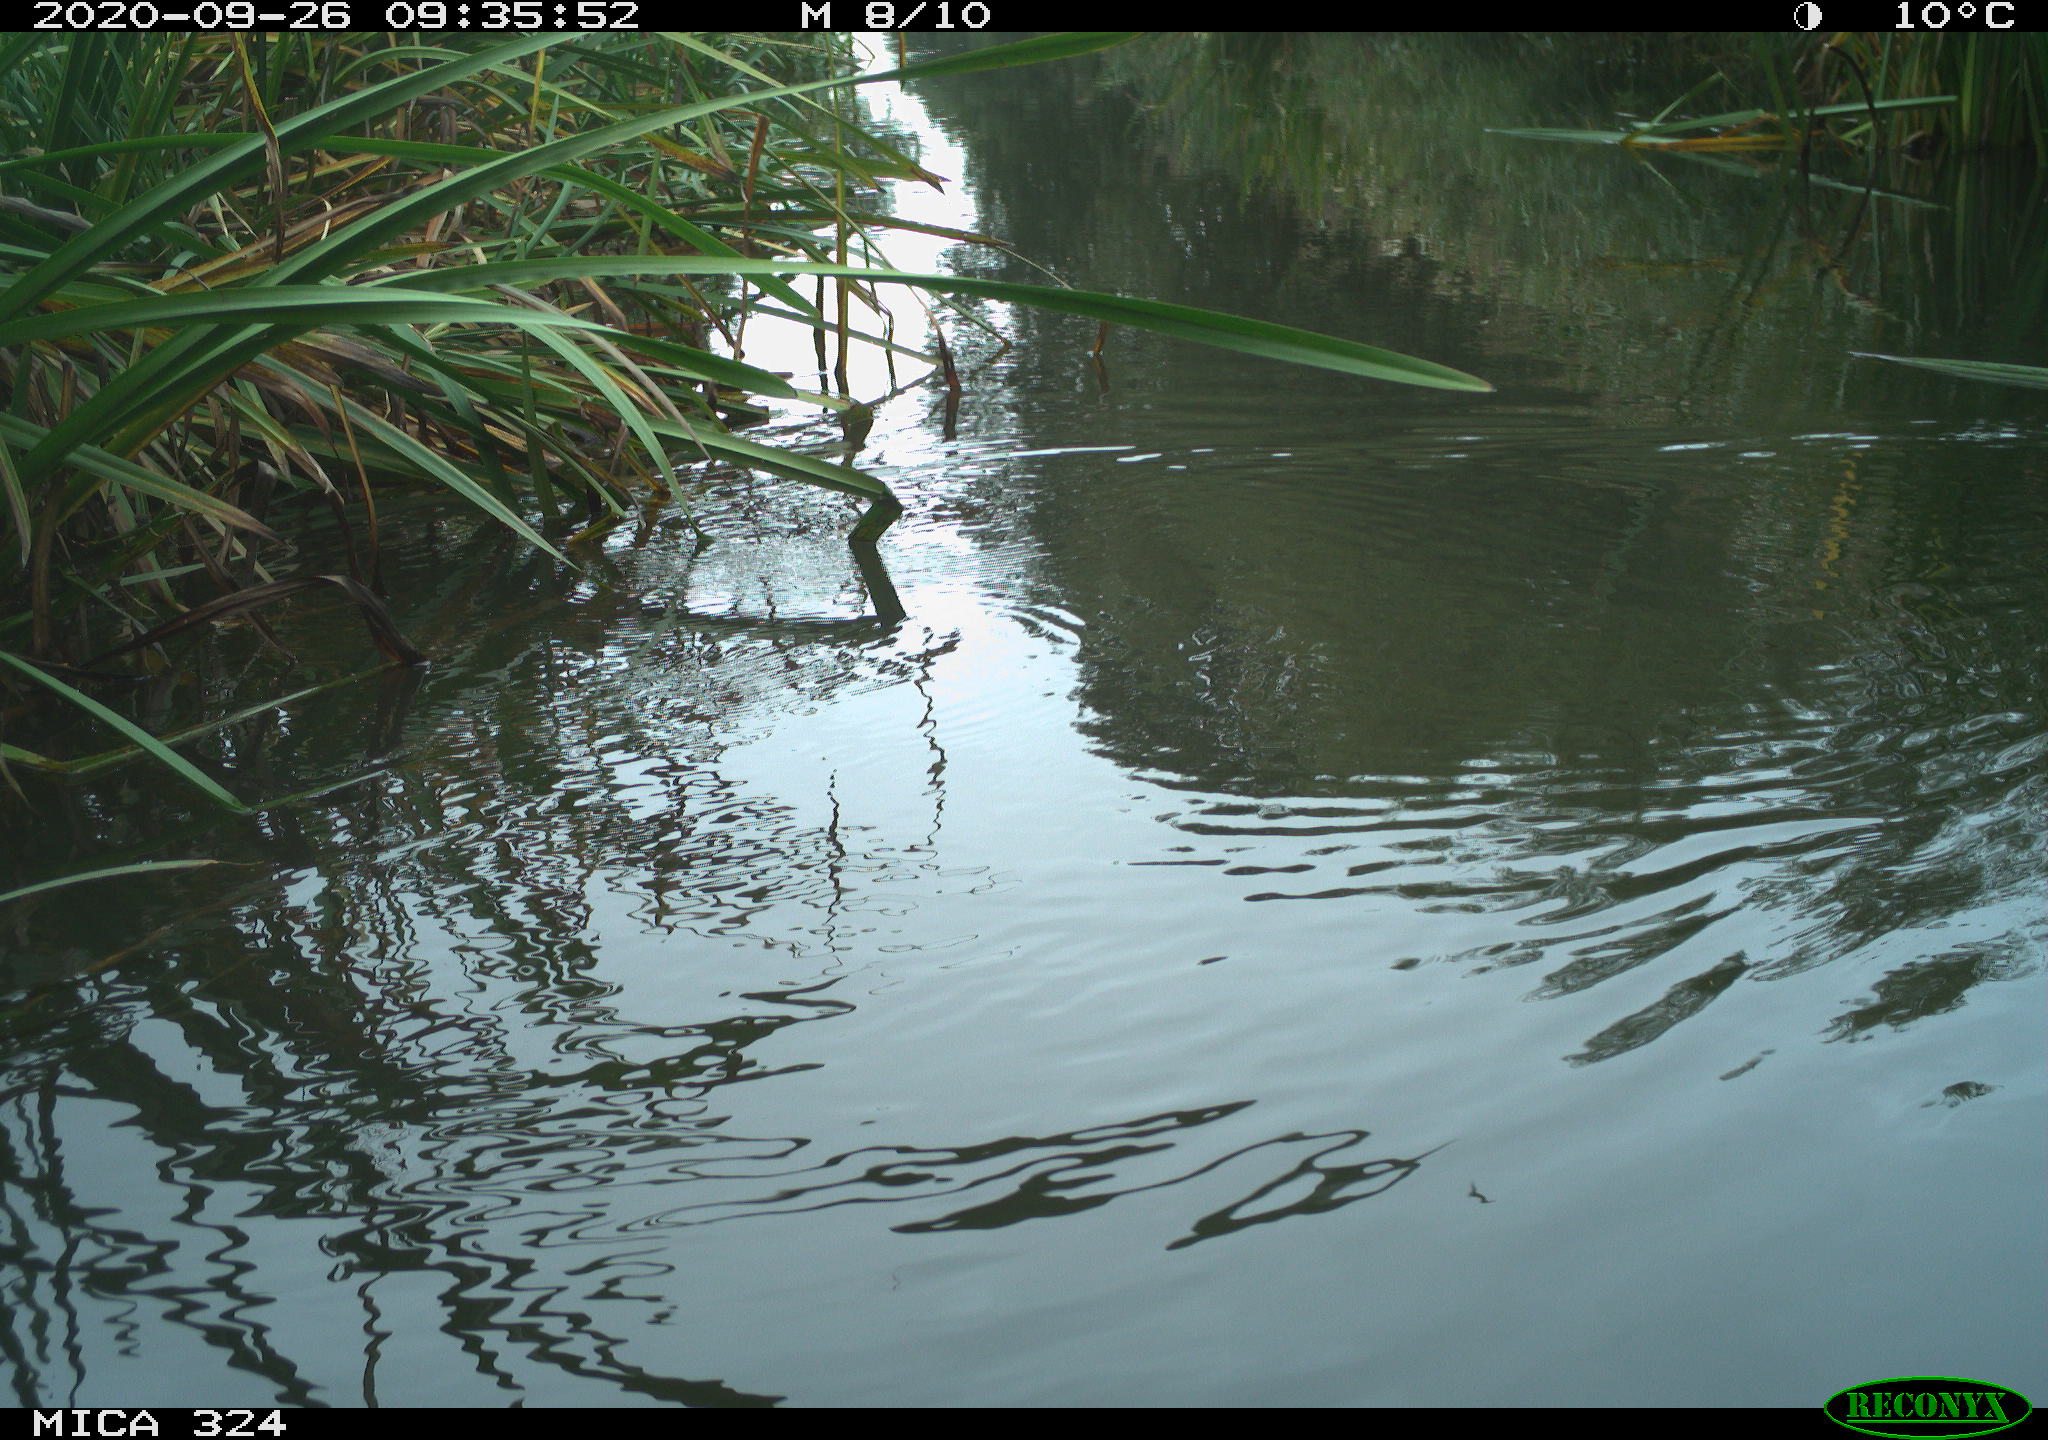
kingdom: Animalia
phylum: Chordata
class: Aves
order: Gruiformes
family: Rallidae
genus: Gallinula
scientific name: Gallinula chloropus
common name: Common moorhen
